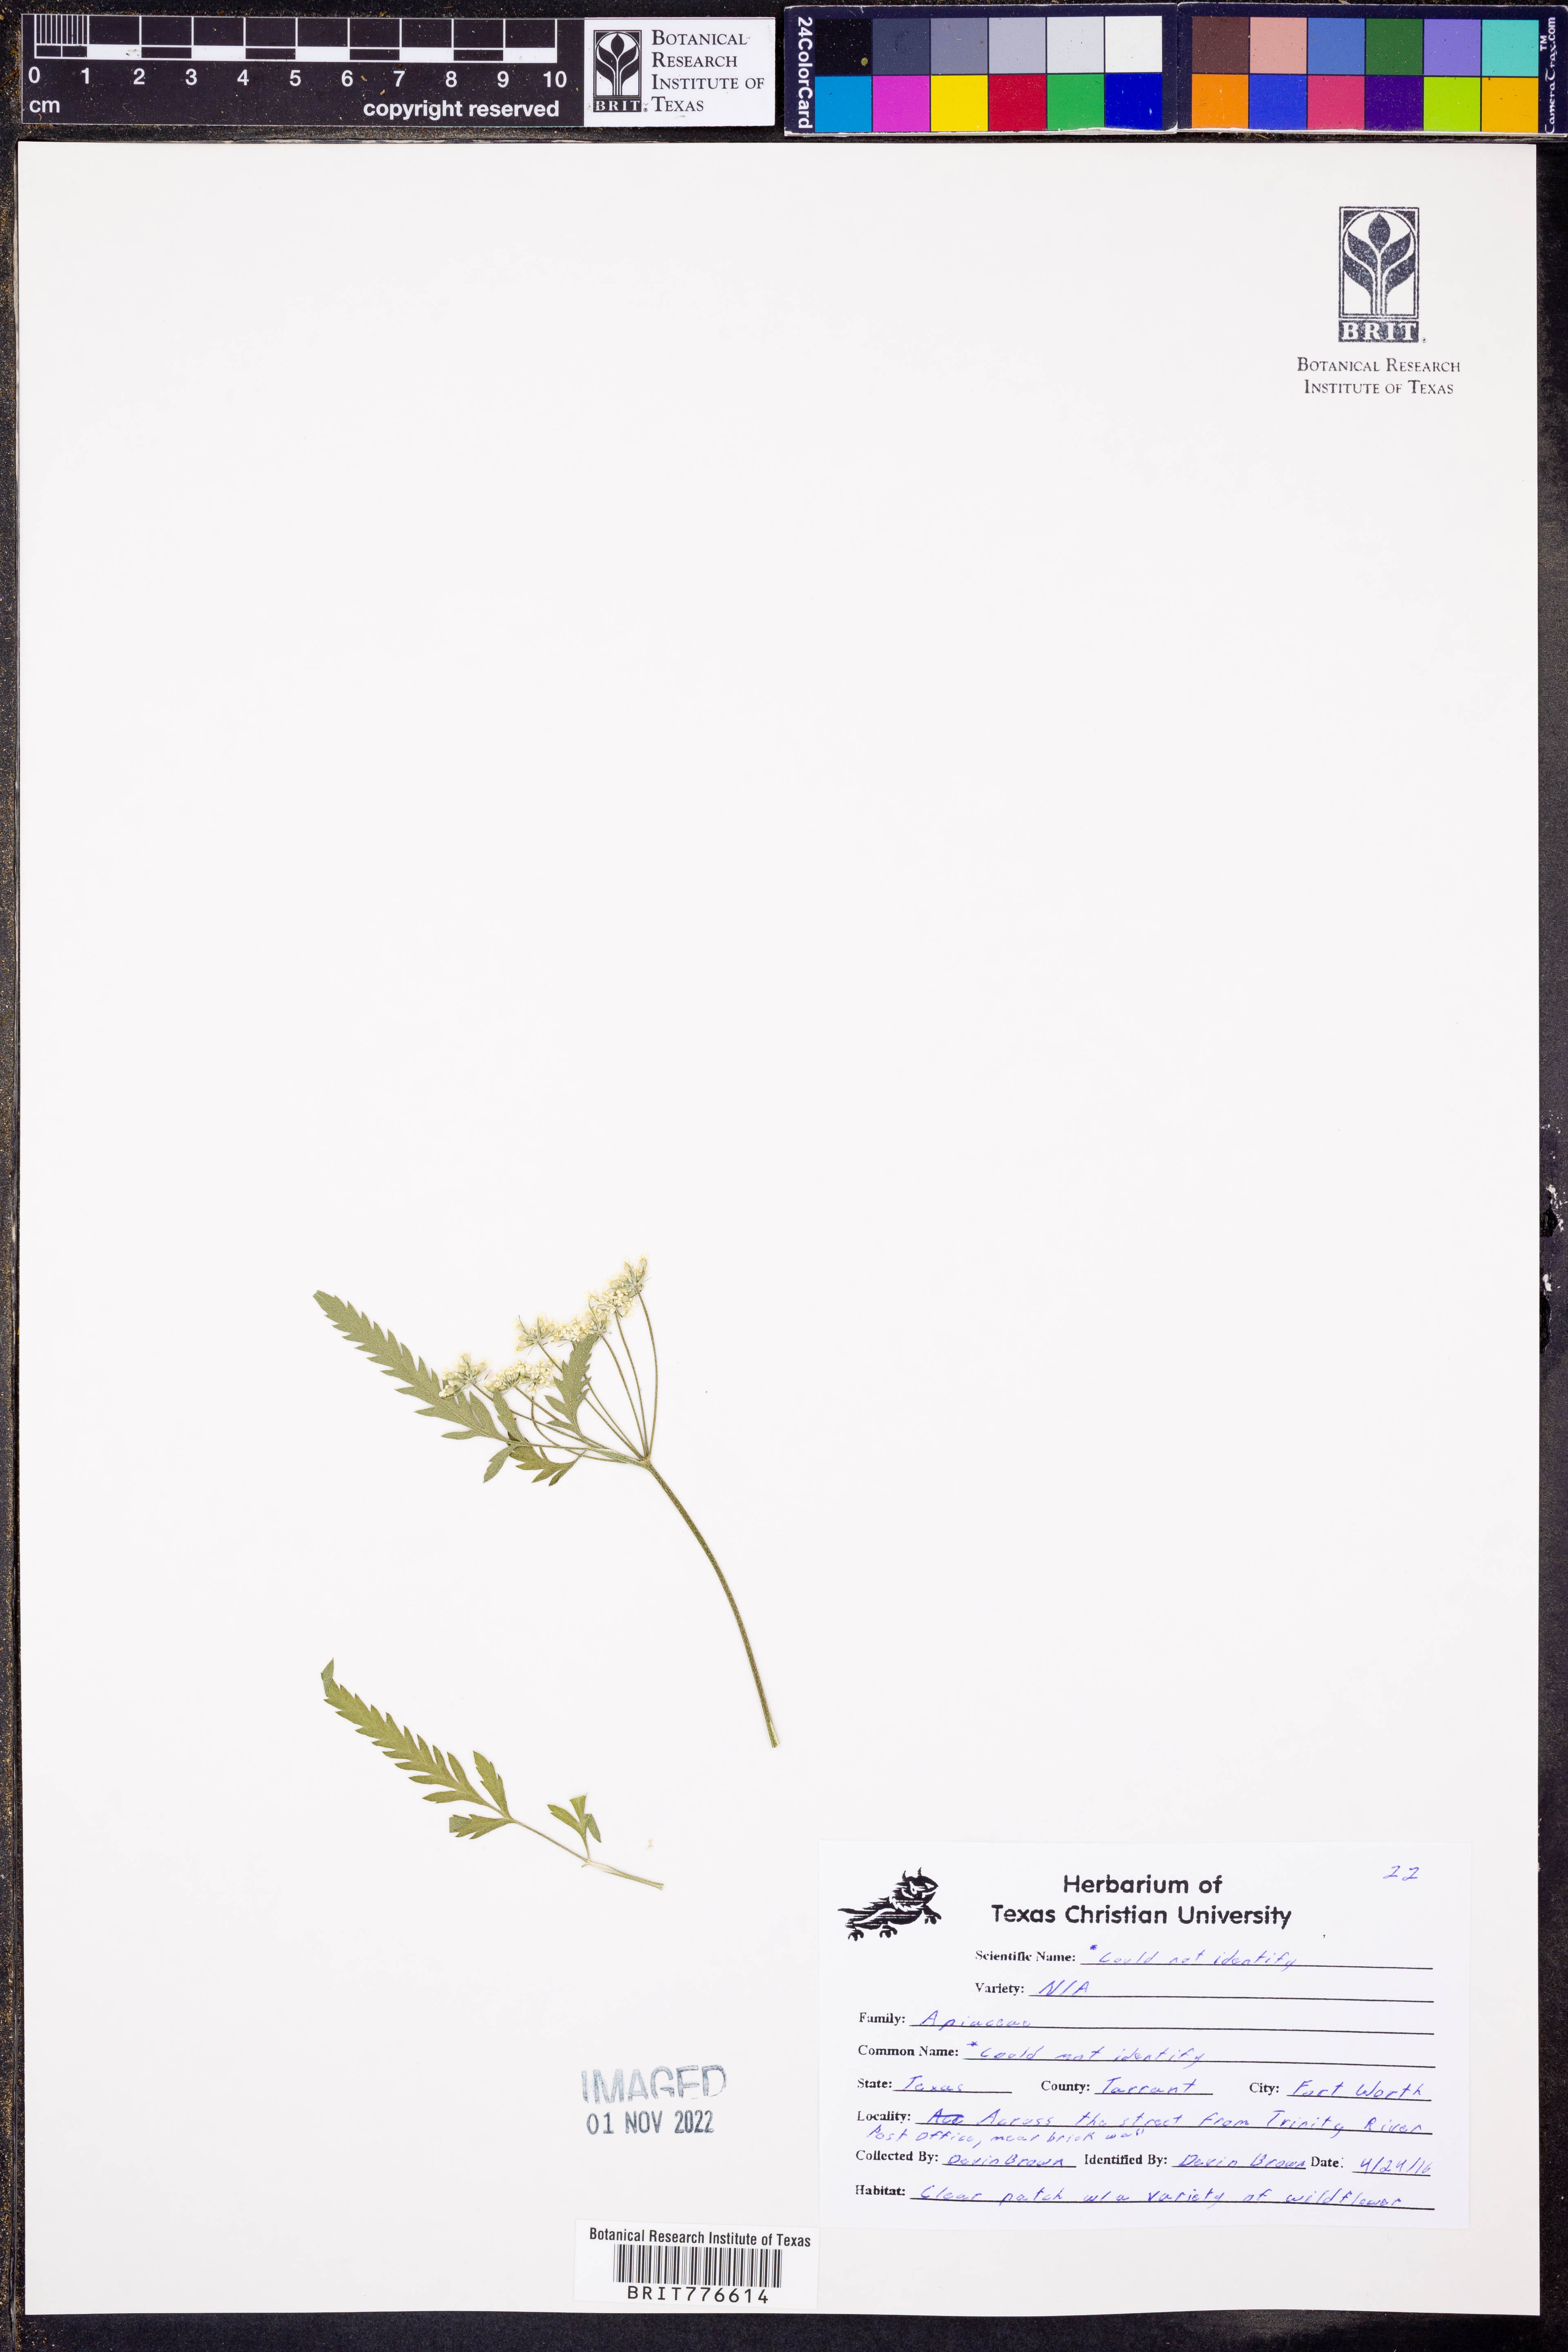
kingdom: Plantae
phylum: Tracheophyta
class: Magnoliopsida
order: Apiales
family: Apiaceae
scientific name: Apiaceae
